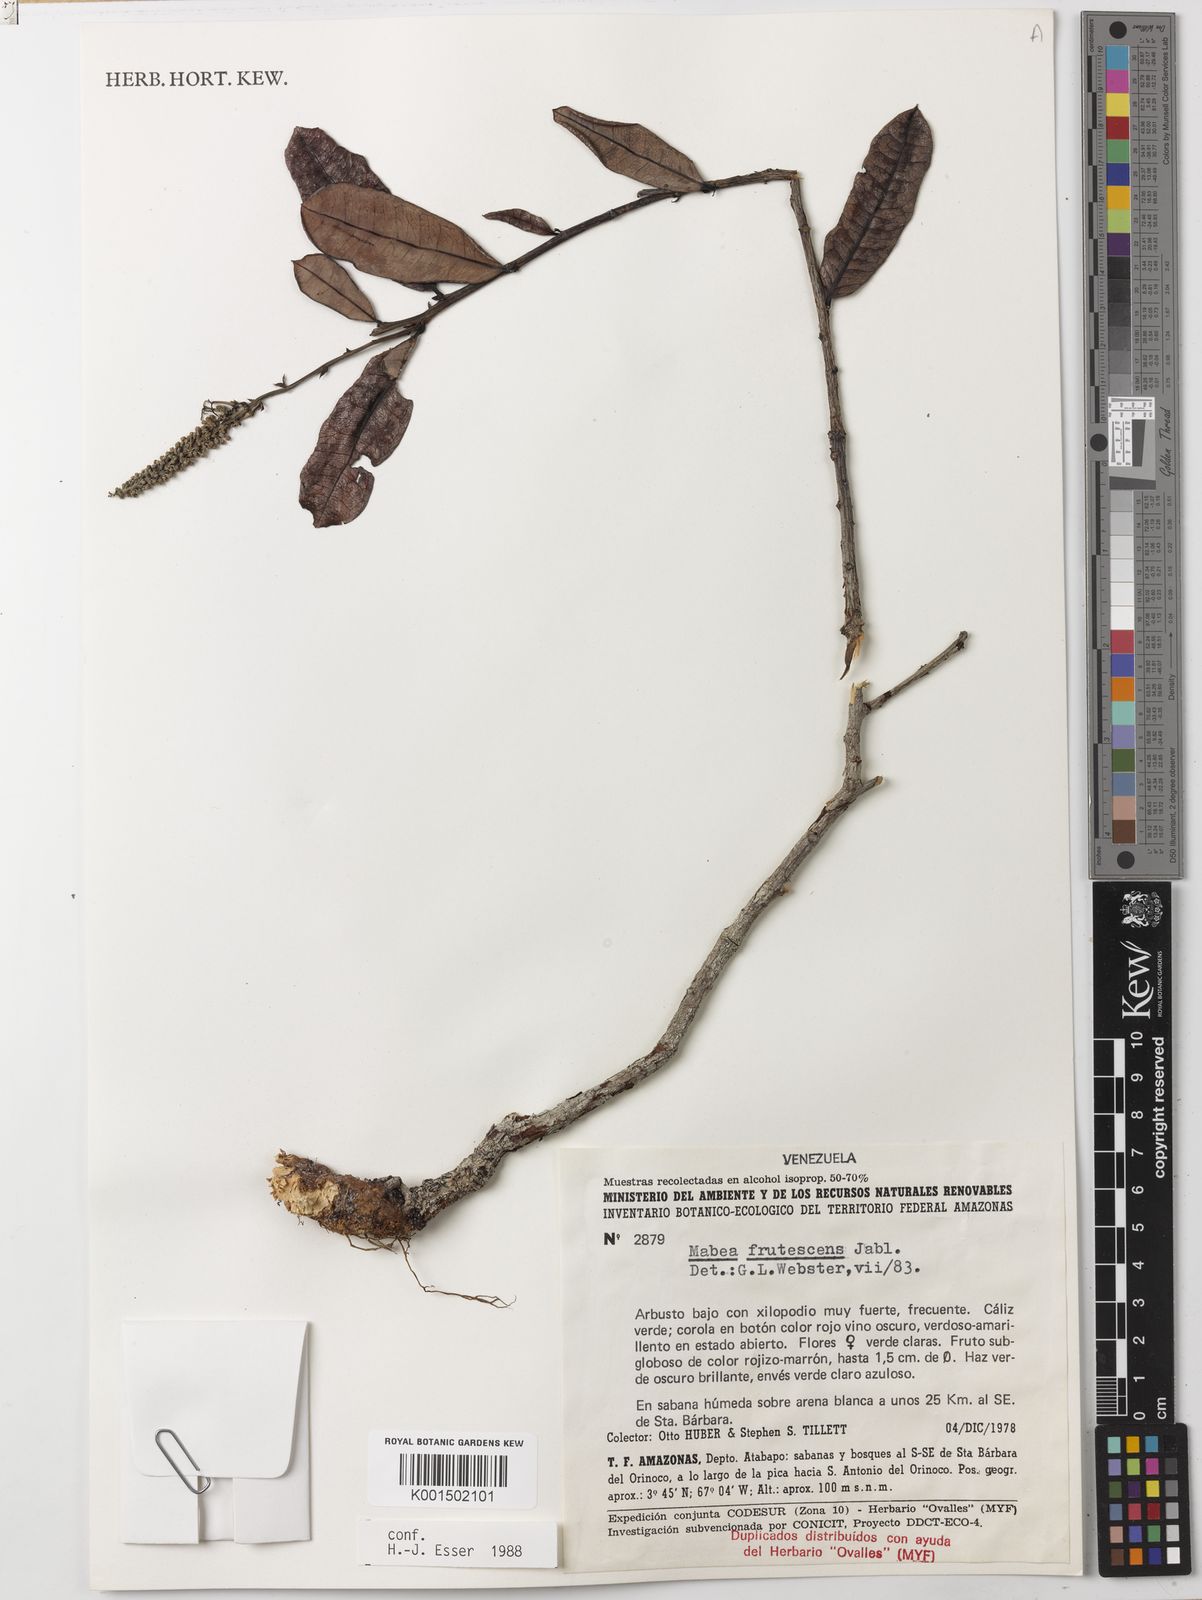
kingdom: Plantae
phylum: Tracheophyta
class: Magnoliopsida
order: Malpighiales
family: Euphorbiaceae
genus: Mabea
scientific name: Mabea frutescens
